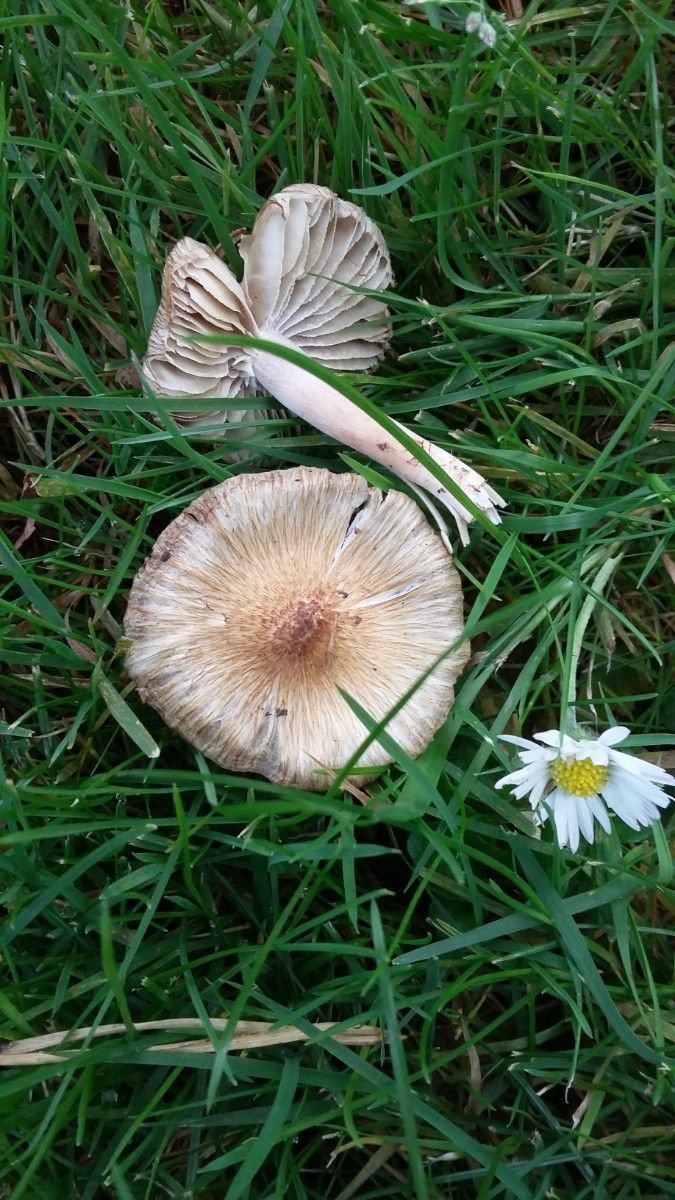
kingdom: Fungi
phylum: Basidiomycota
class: Agaricomycetes
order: Agaricales
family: Inocybaceae
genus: Inocybe
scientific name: Inocybe
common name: trævlhat
